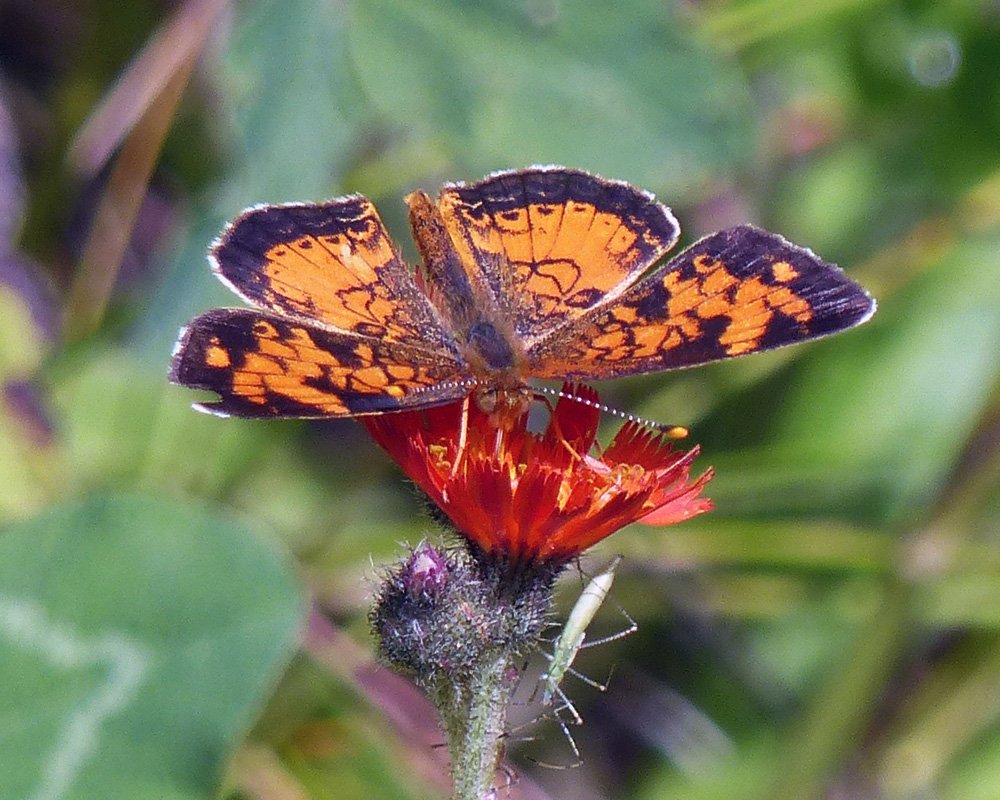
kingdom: Animalia
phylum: Arthropoda
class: Insecta
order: Lepidoptera
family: Nymphalidae
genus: Phyciodes
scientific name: Phyciodes tharos
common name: Northern Crescent
